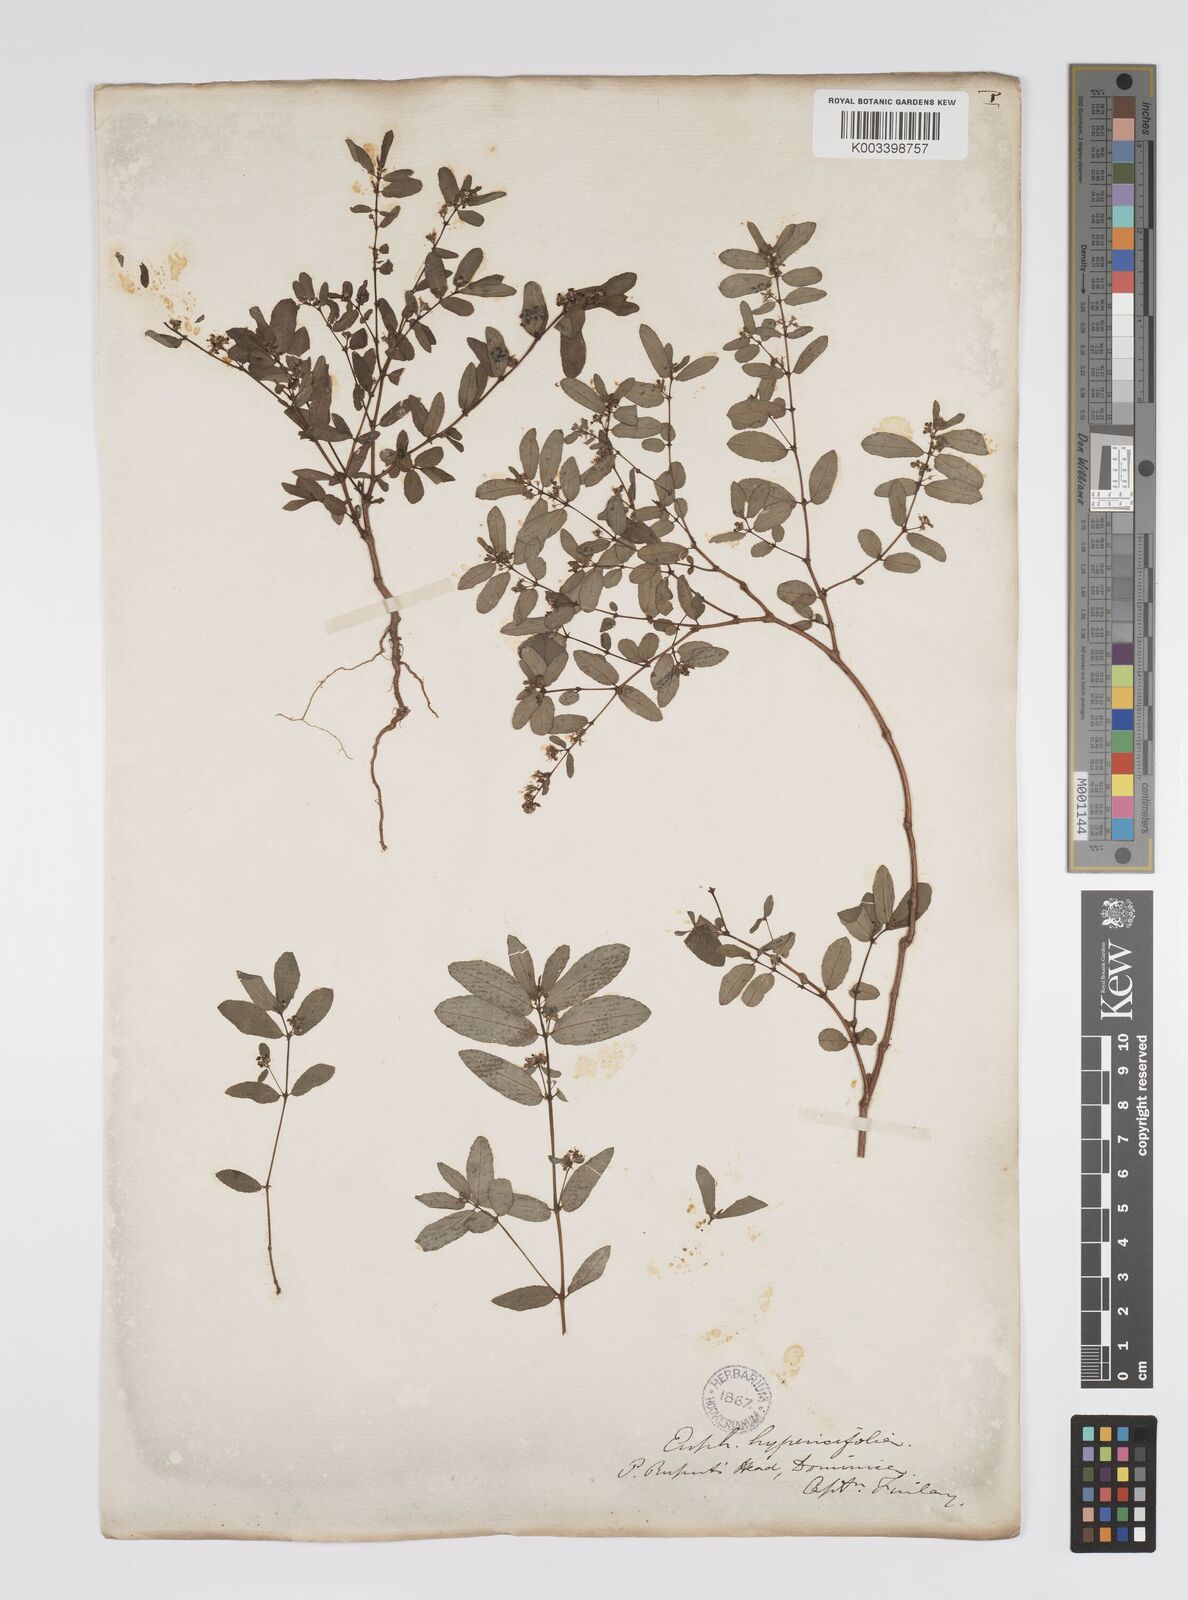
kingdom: Plantae
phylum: Tracheophyta
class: Magnoliopsida
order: Malpighiales
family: Euphorbiaceae
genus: Euphorbia
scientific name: Euphorbia
